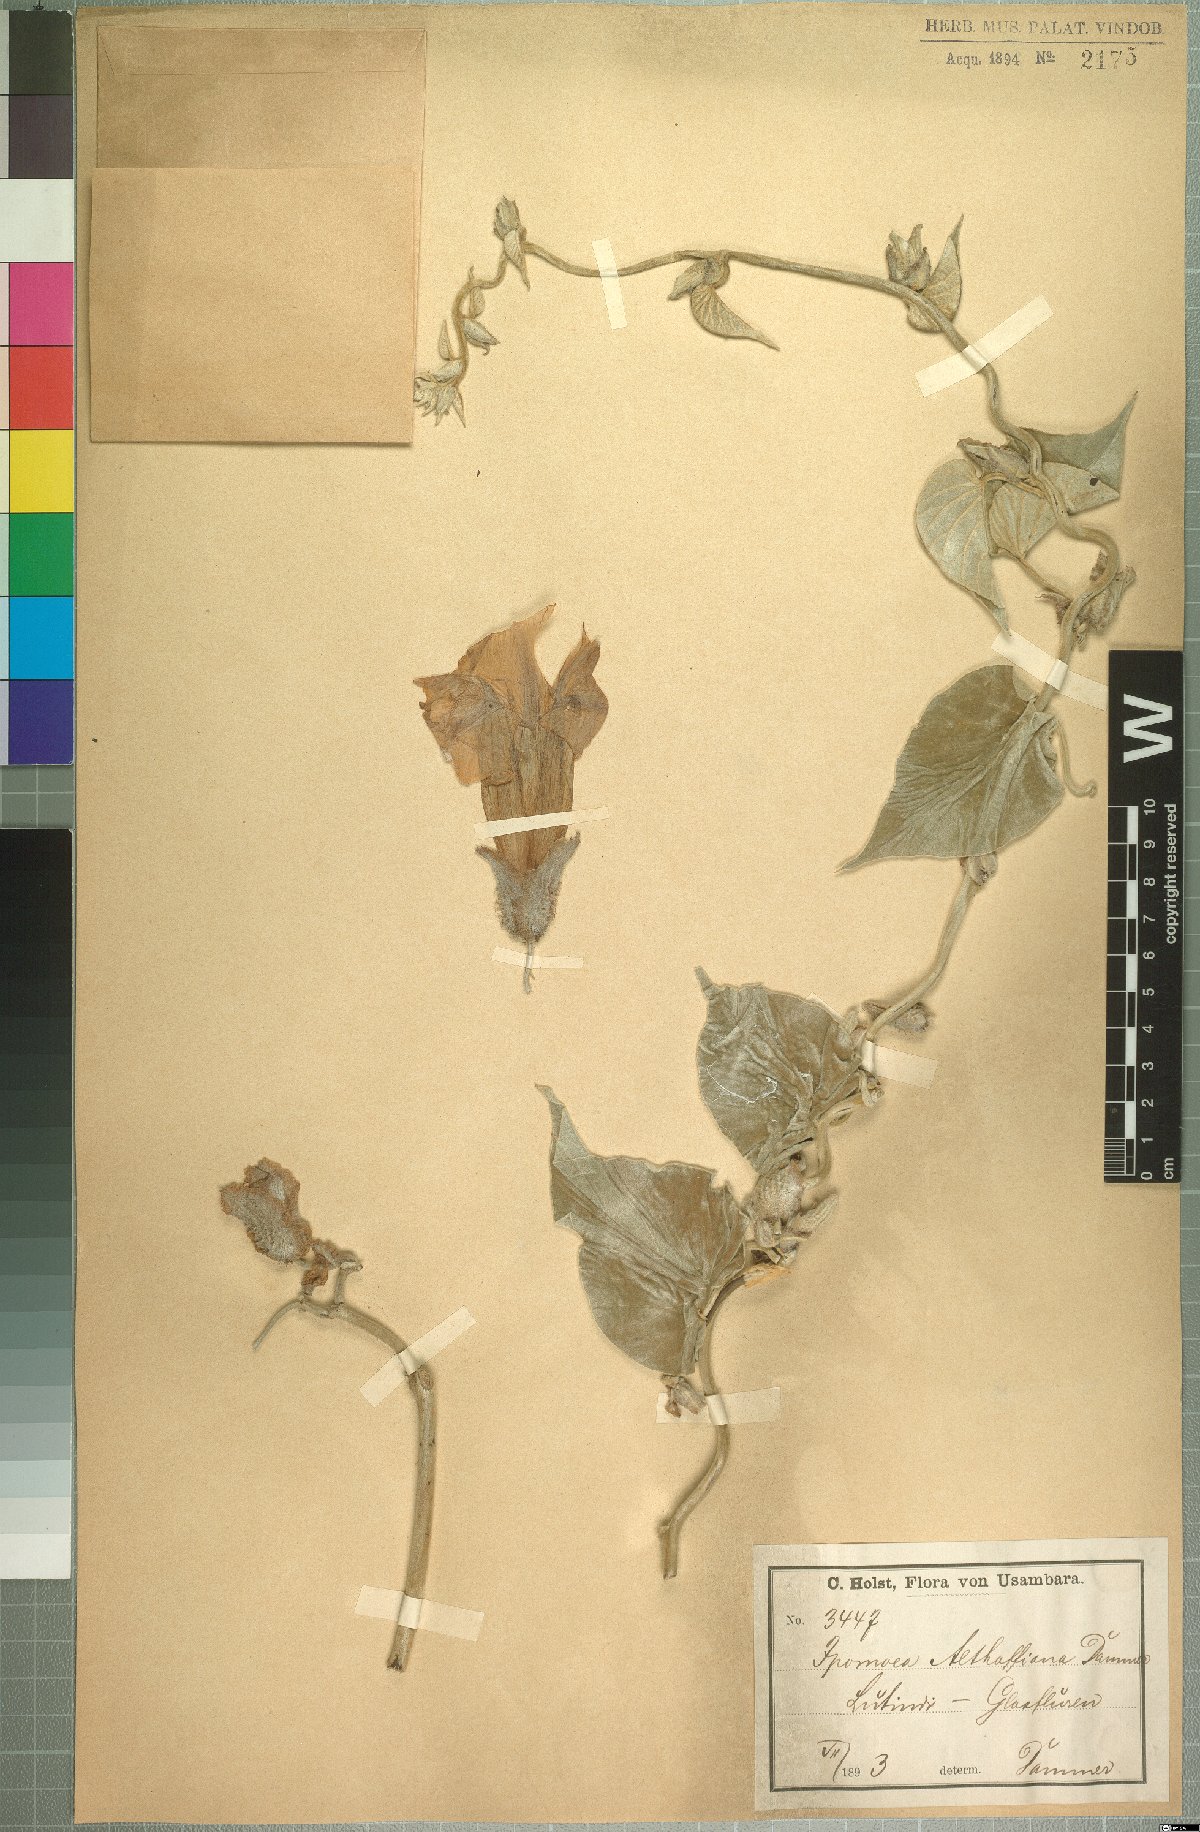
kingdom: Plantae
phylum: Tracheophyta
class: Magnoliopsida
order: Solanales
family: Convolvulaceae
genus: Stictocardia
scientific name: Stictocardia incomta
